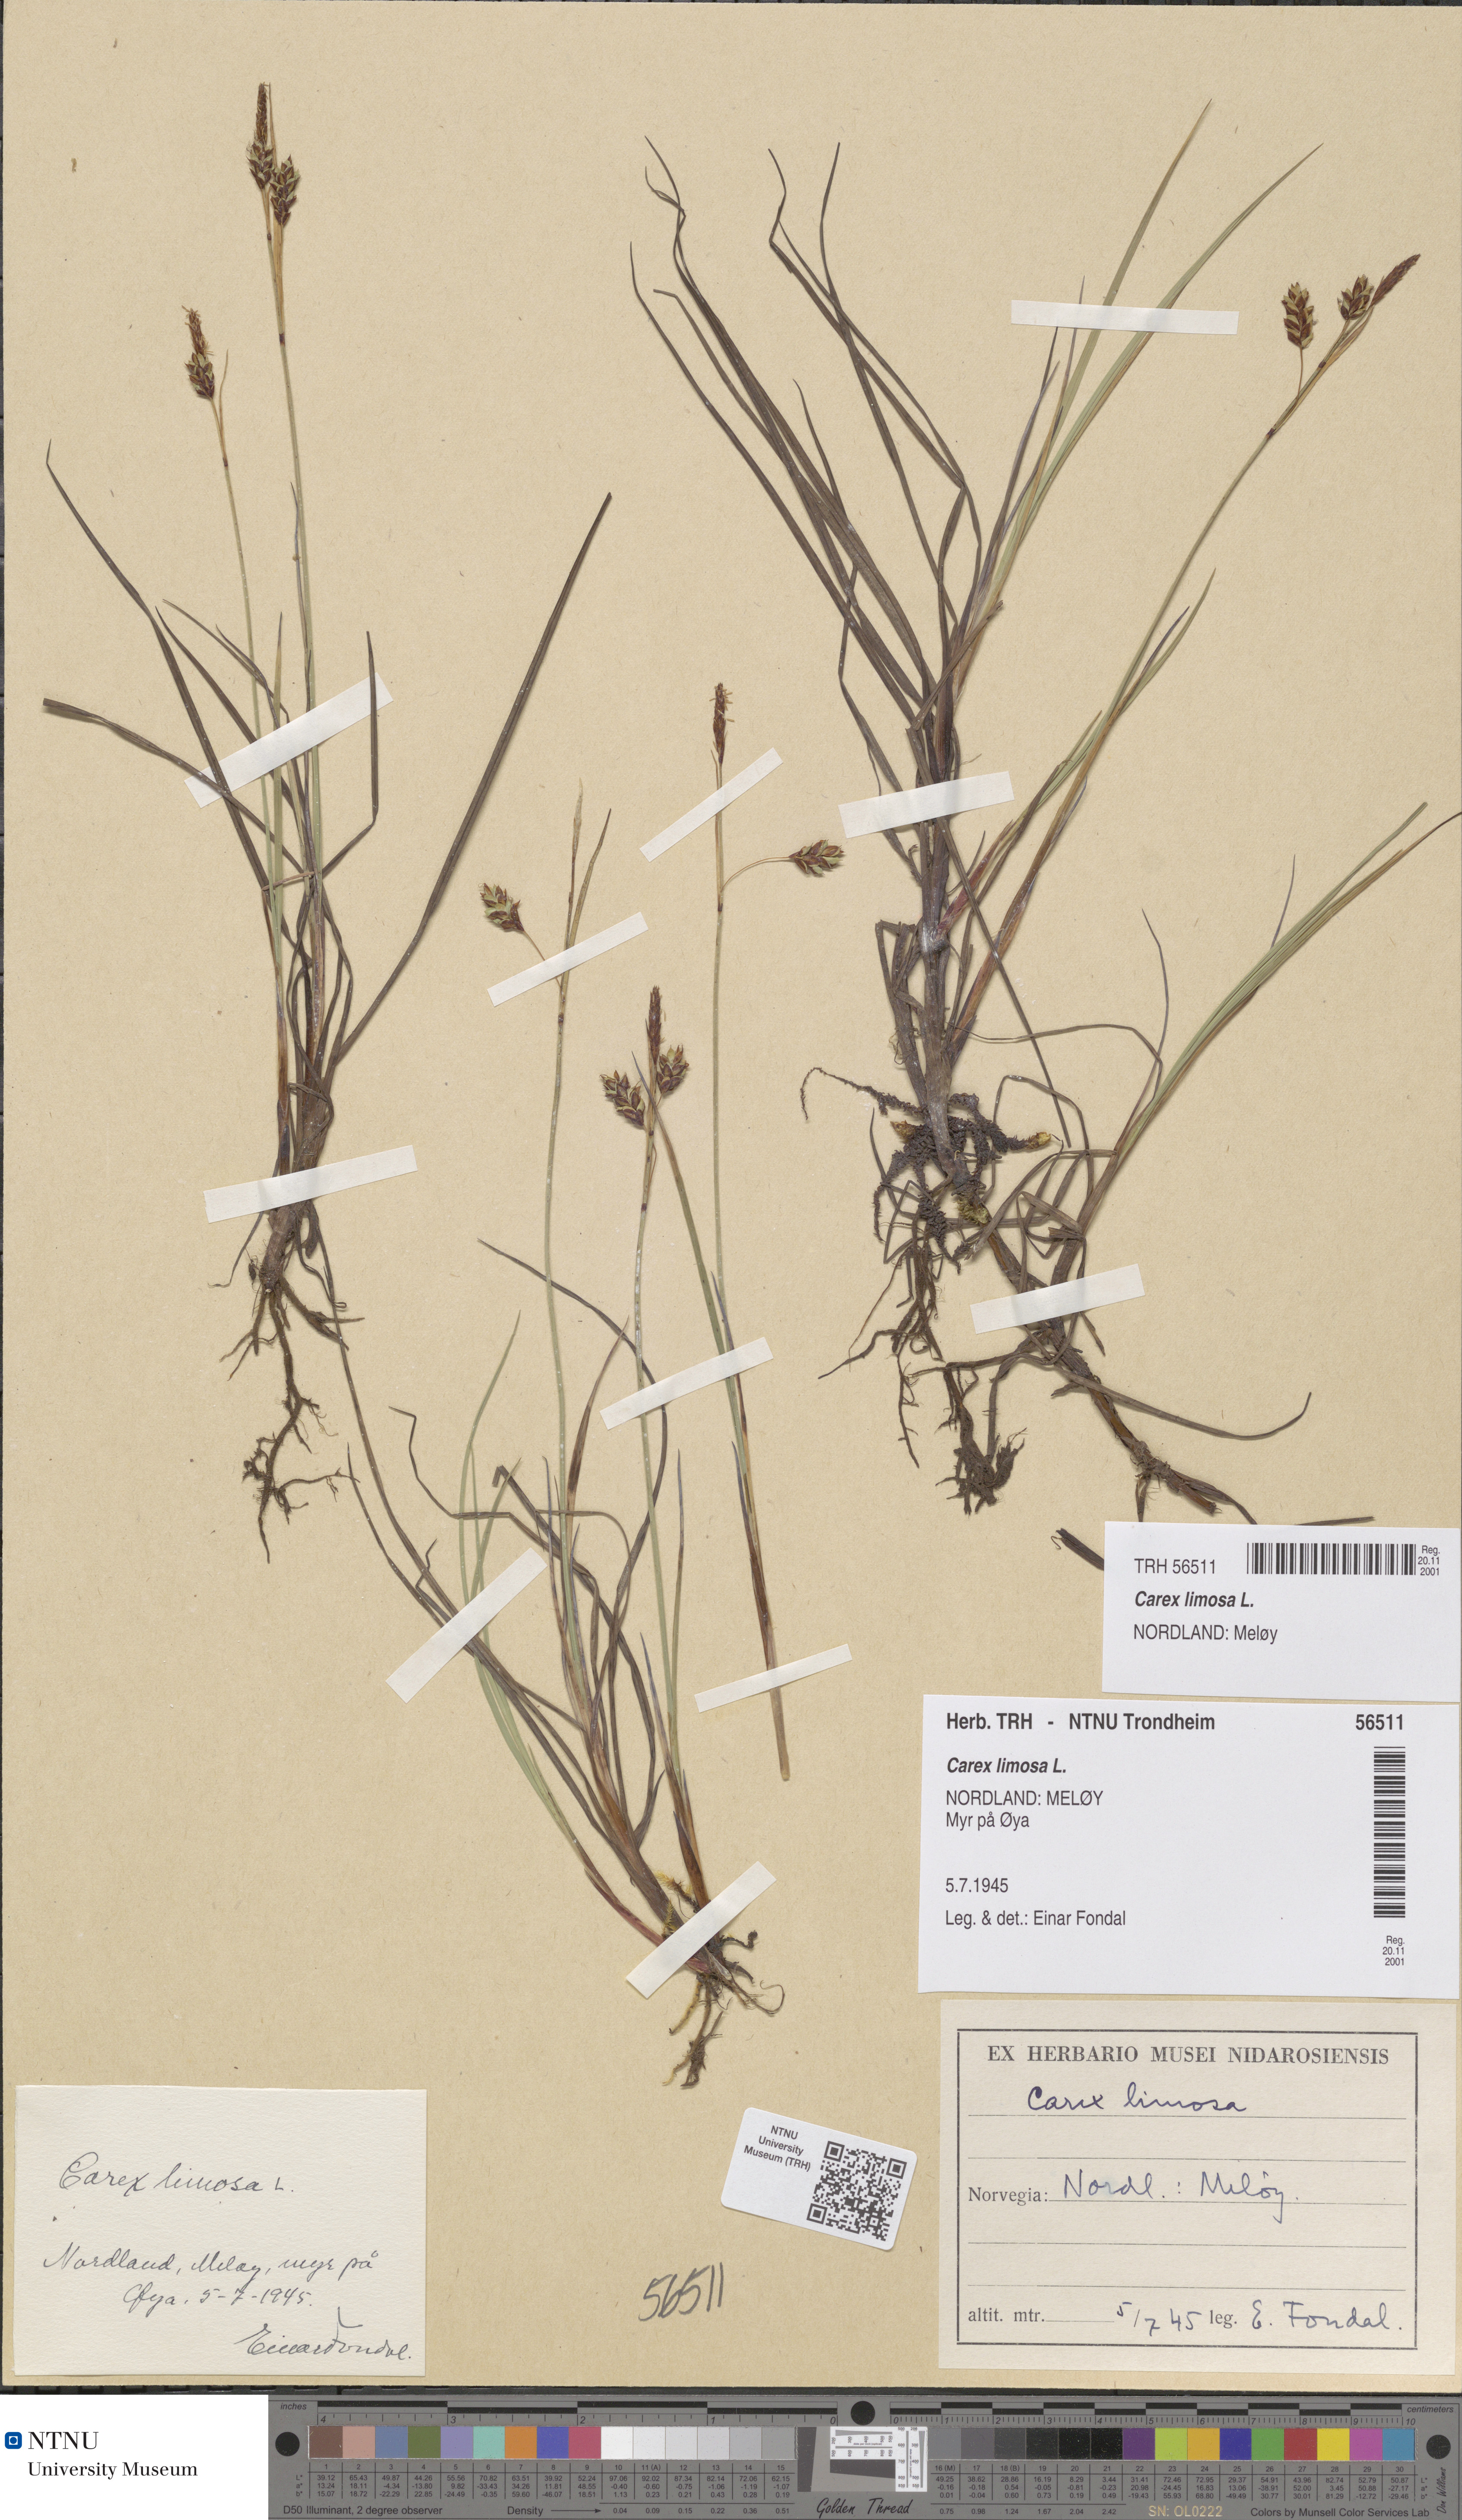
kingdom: Plantae
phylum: Tracheophyta
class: Liliopsida
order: Poales
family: Cyperaceae
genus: Carex
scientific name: Carex limosa
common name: Bog sedge
